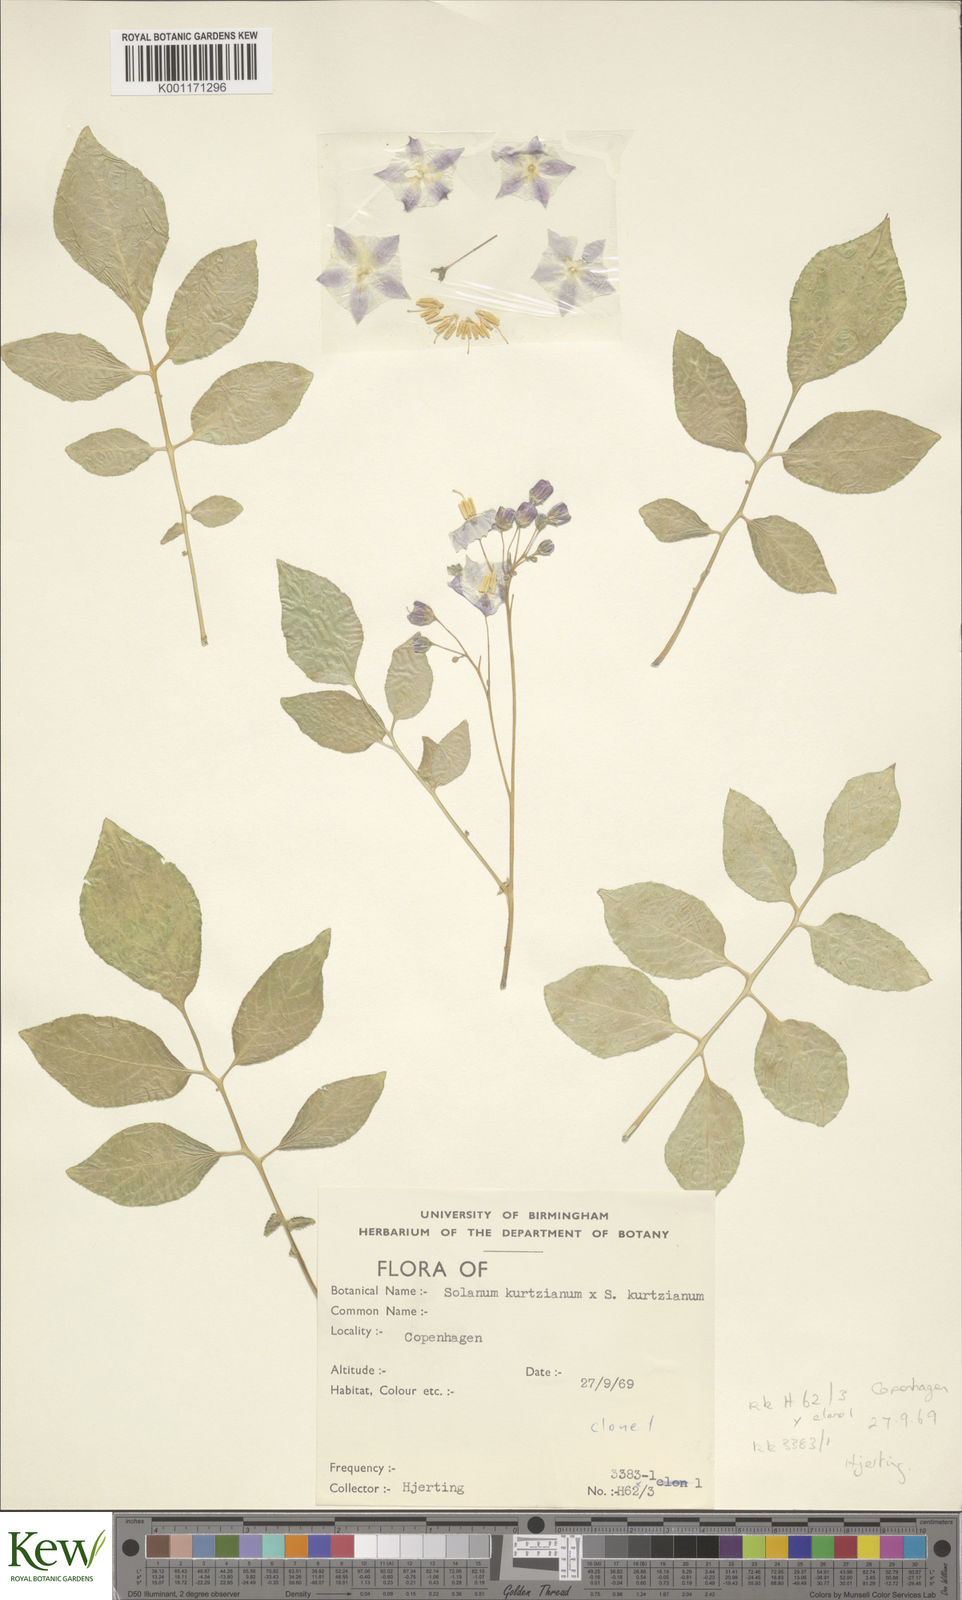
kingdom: Plantae
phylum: Tracheophyta
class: Magnoliopsida
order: Solanales
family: Solanaceae
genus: Solanum
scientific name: Solanum kurtzianum
